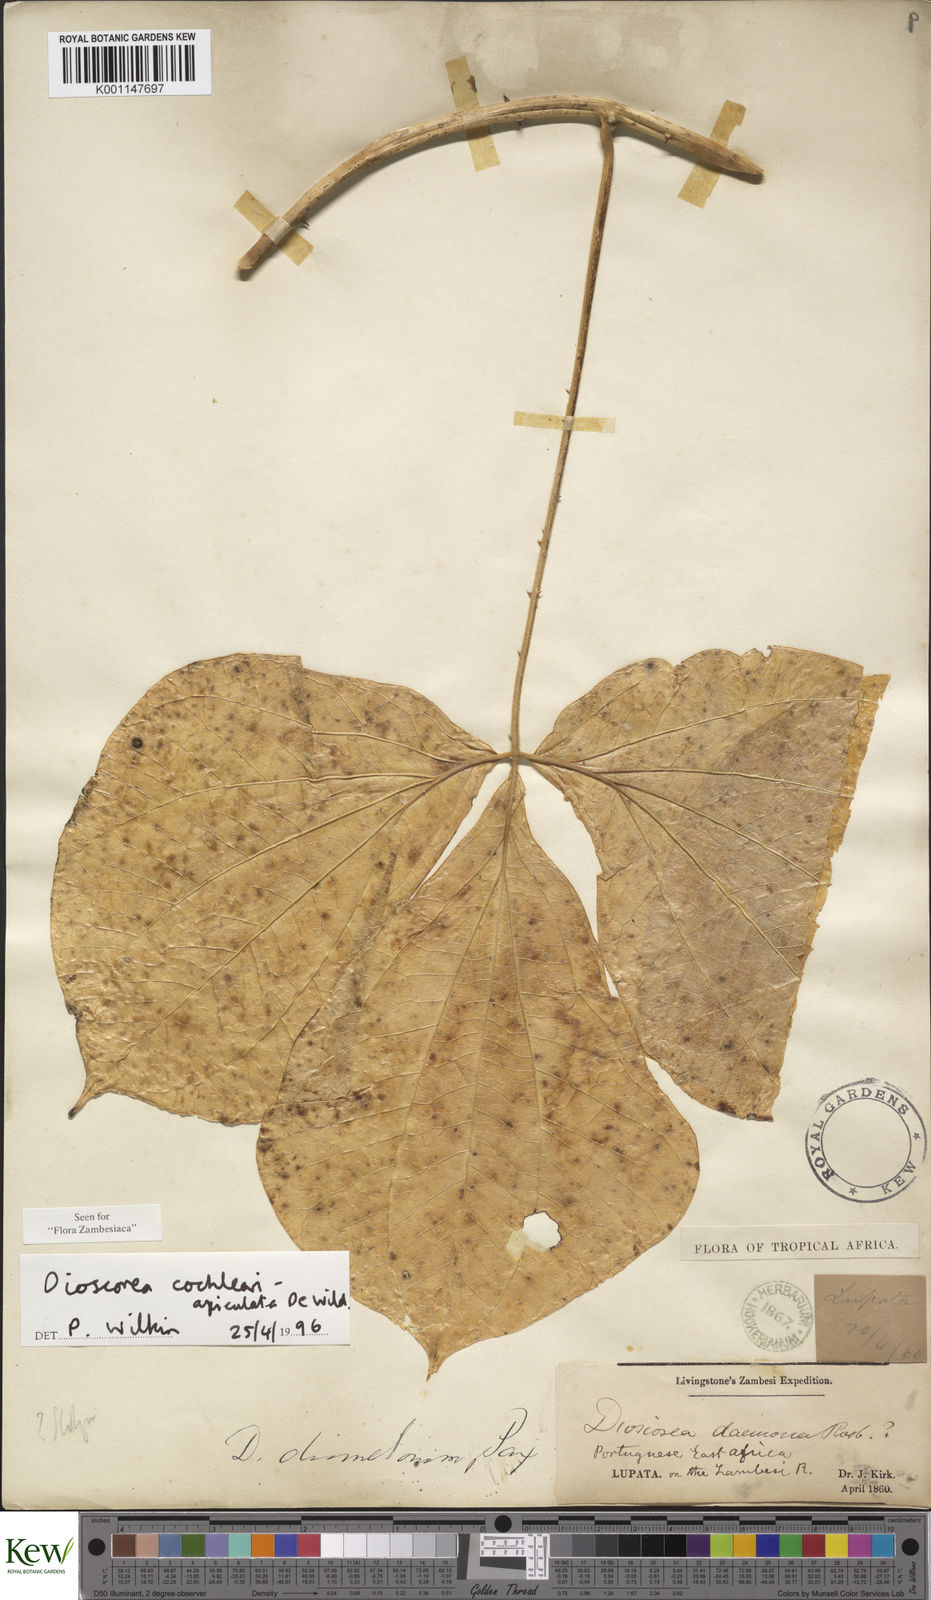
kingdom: Plantae
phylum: Tracheophyta
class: Liliopsida
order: Dioscoreales
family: Dioscoreaceae
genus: Dioscorea
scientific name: Dioscorea cochleariapiculata
